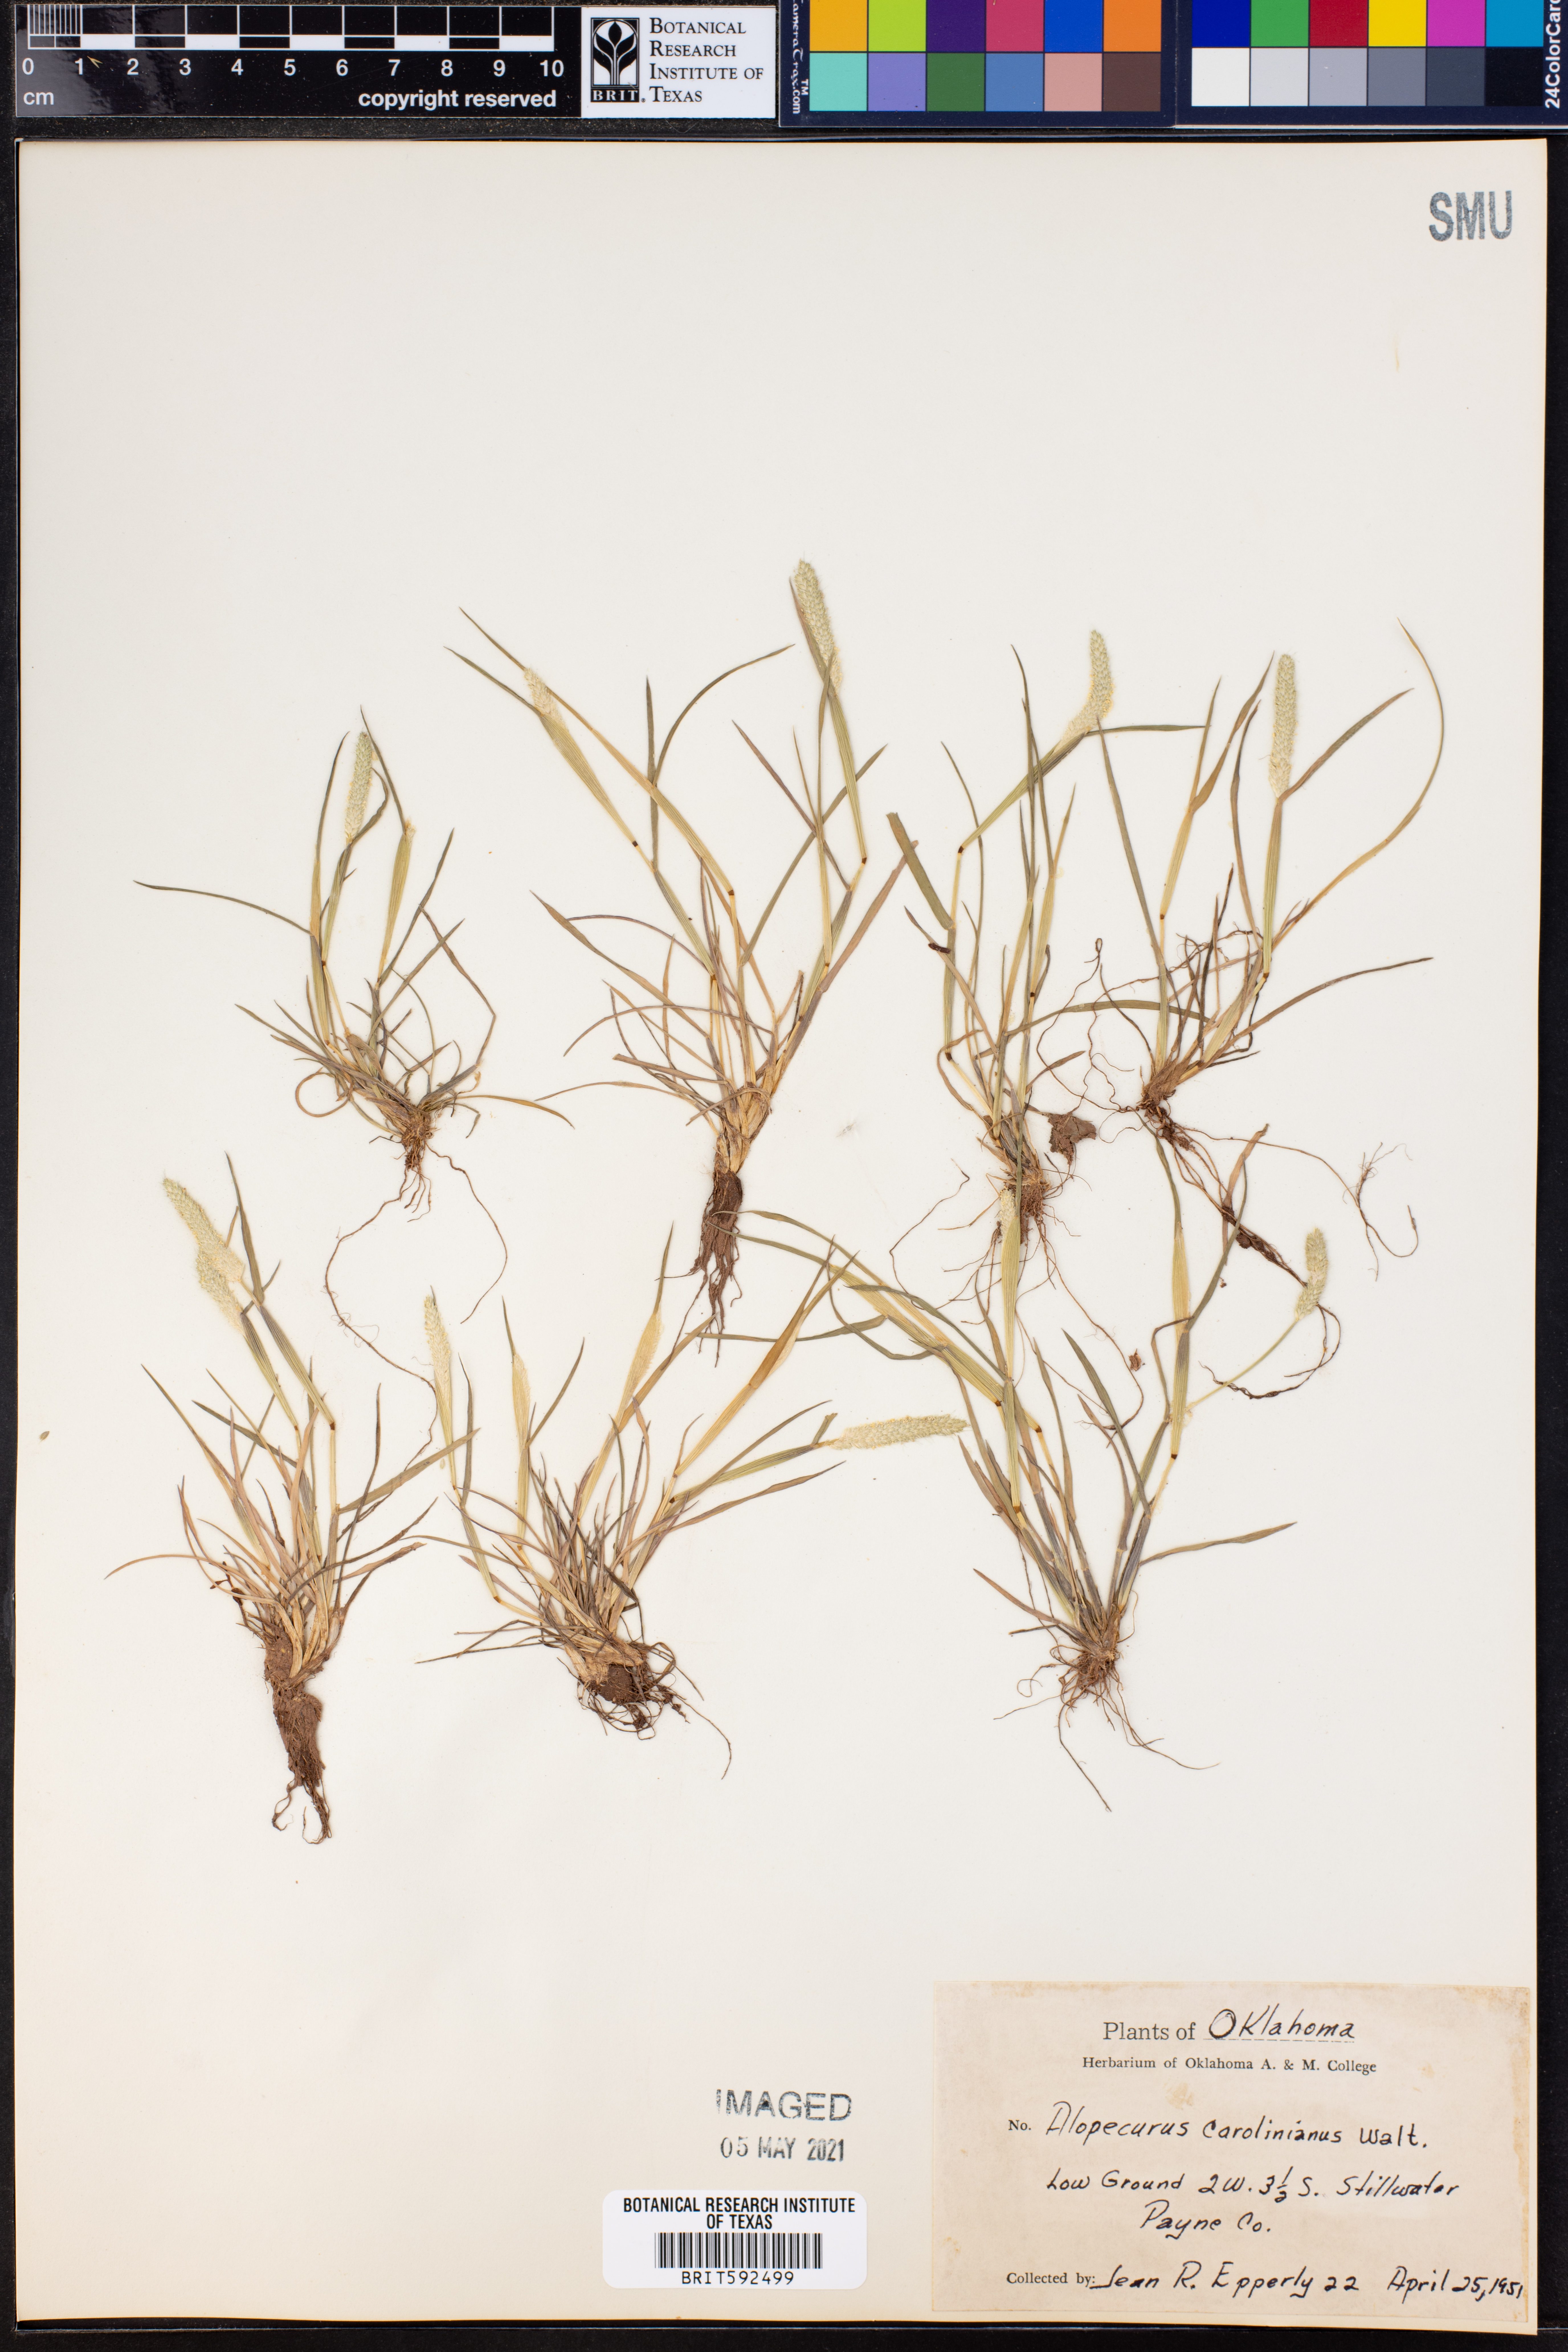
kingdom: Plantae
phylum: Tracheophyta
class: Liliopsida
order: Poales
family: Poaceae
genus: Alopecurus
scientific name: Alopecurus carolinianus
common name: Tufted foxtail
